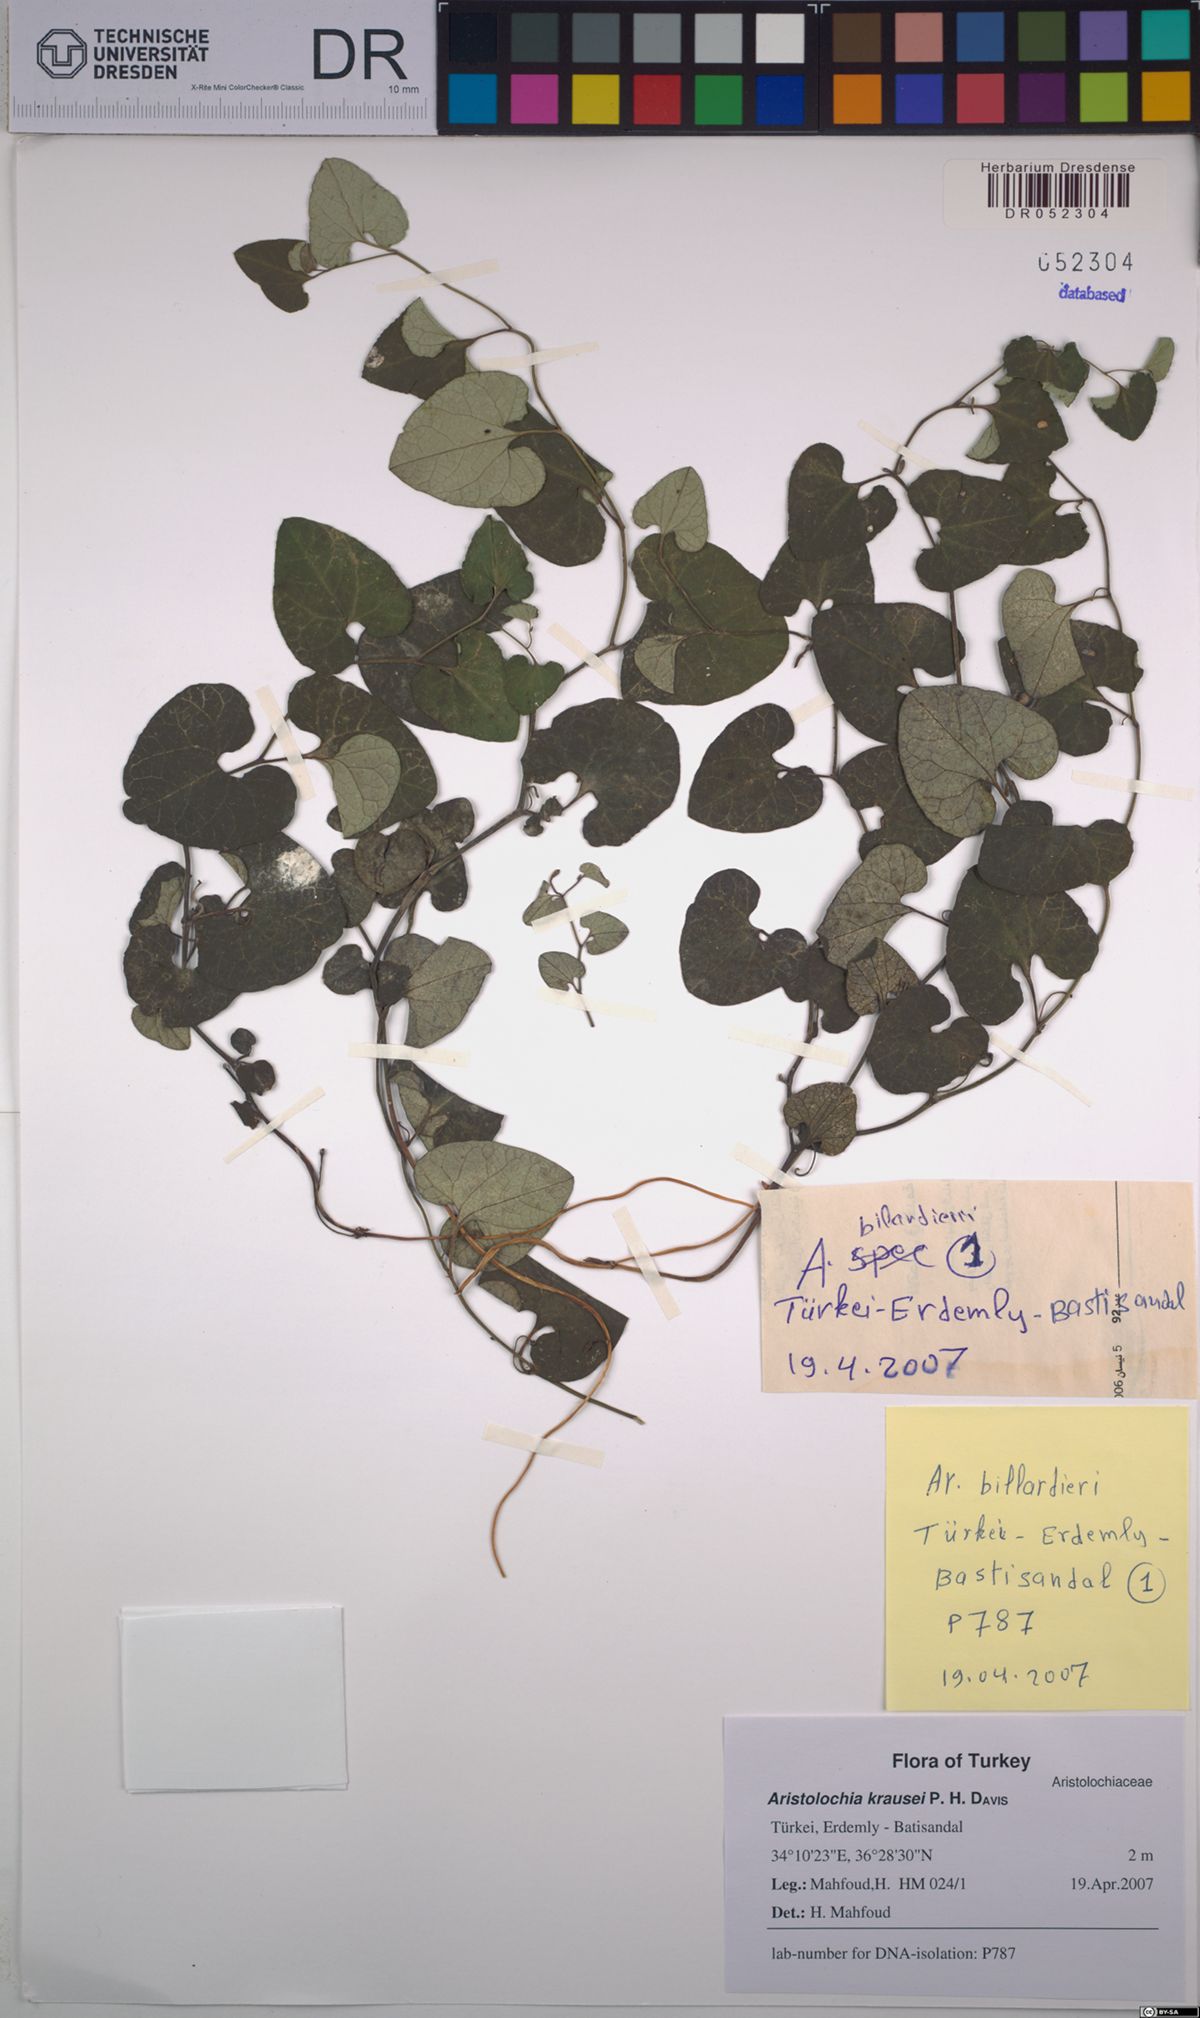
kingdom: Plantae
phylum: Tracheophyta
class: Magnoliopsida
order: Piperales
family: Aristolochiaceae
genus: Aristolochia
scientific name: Aristolochia krausei
